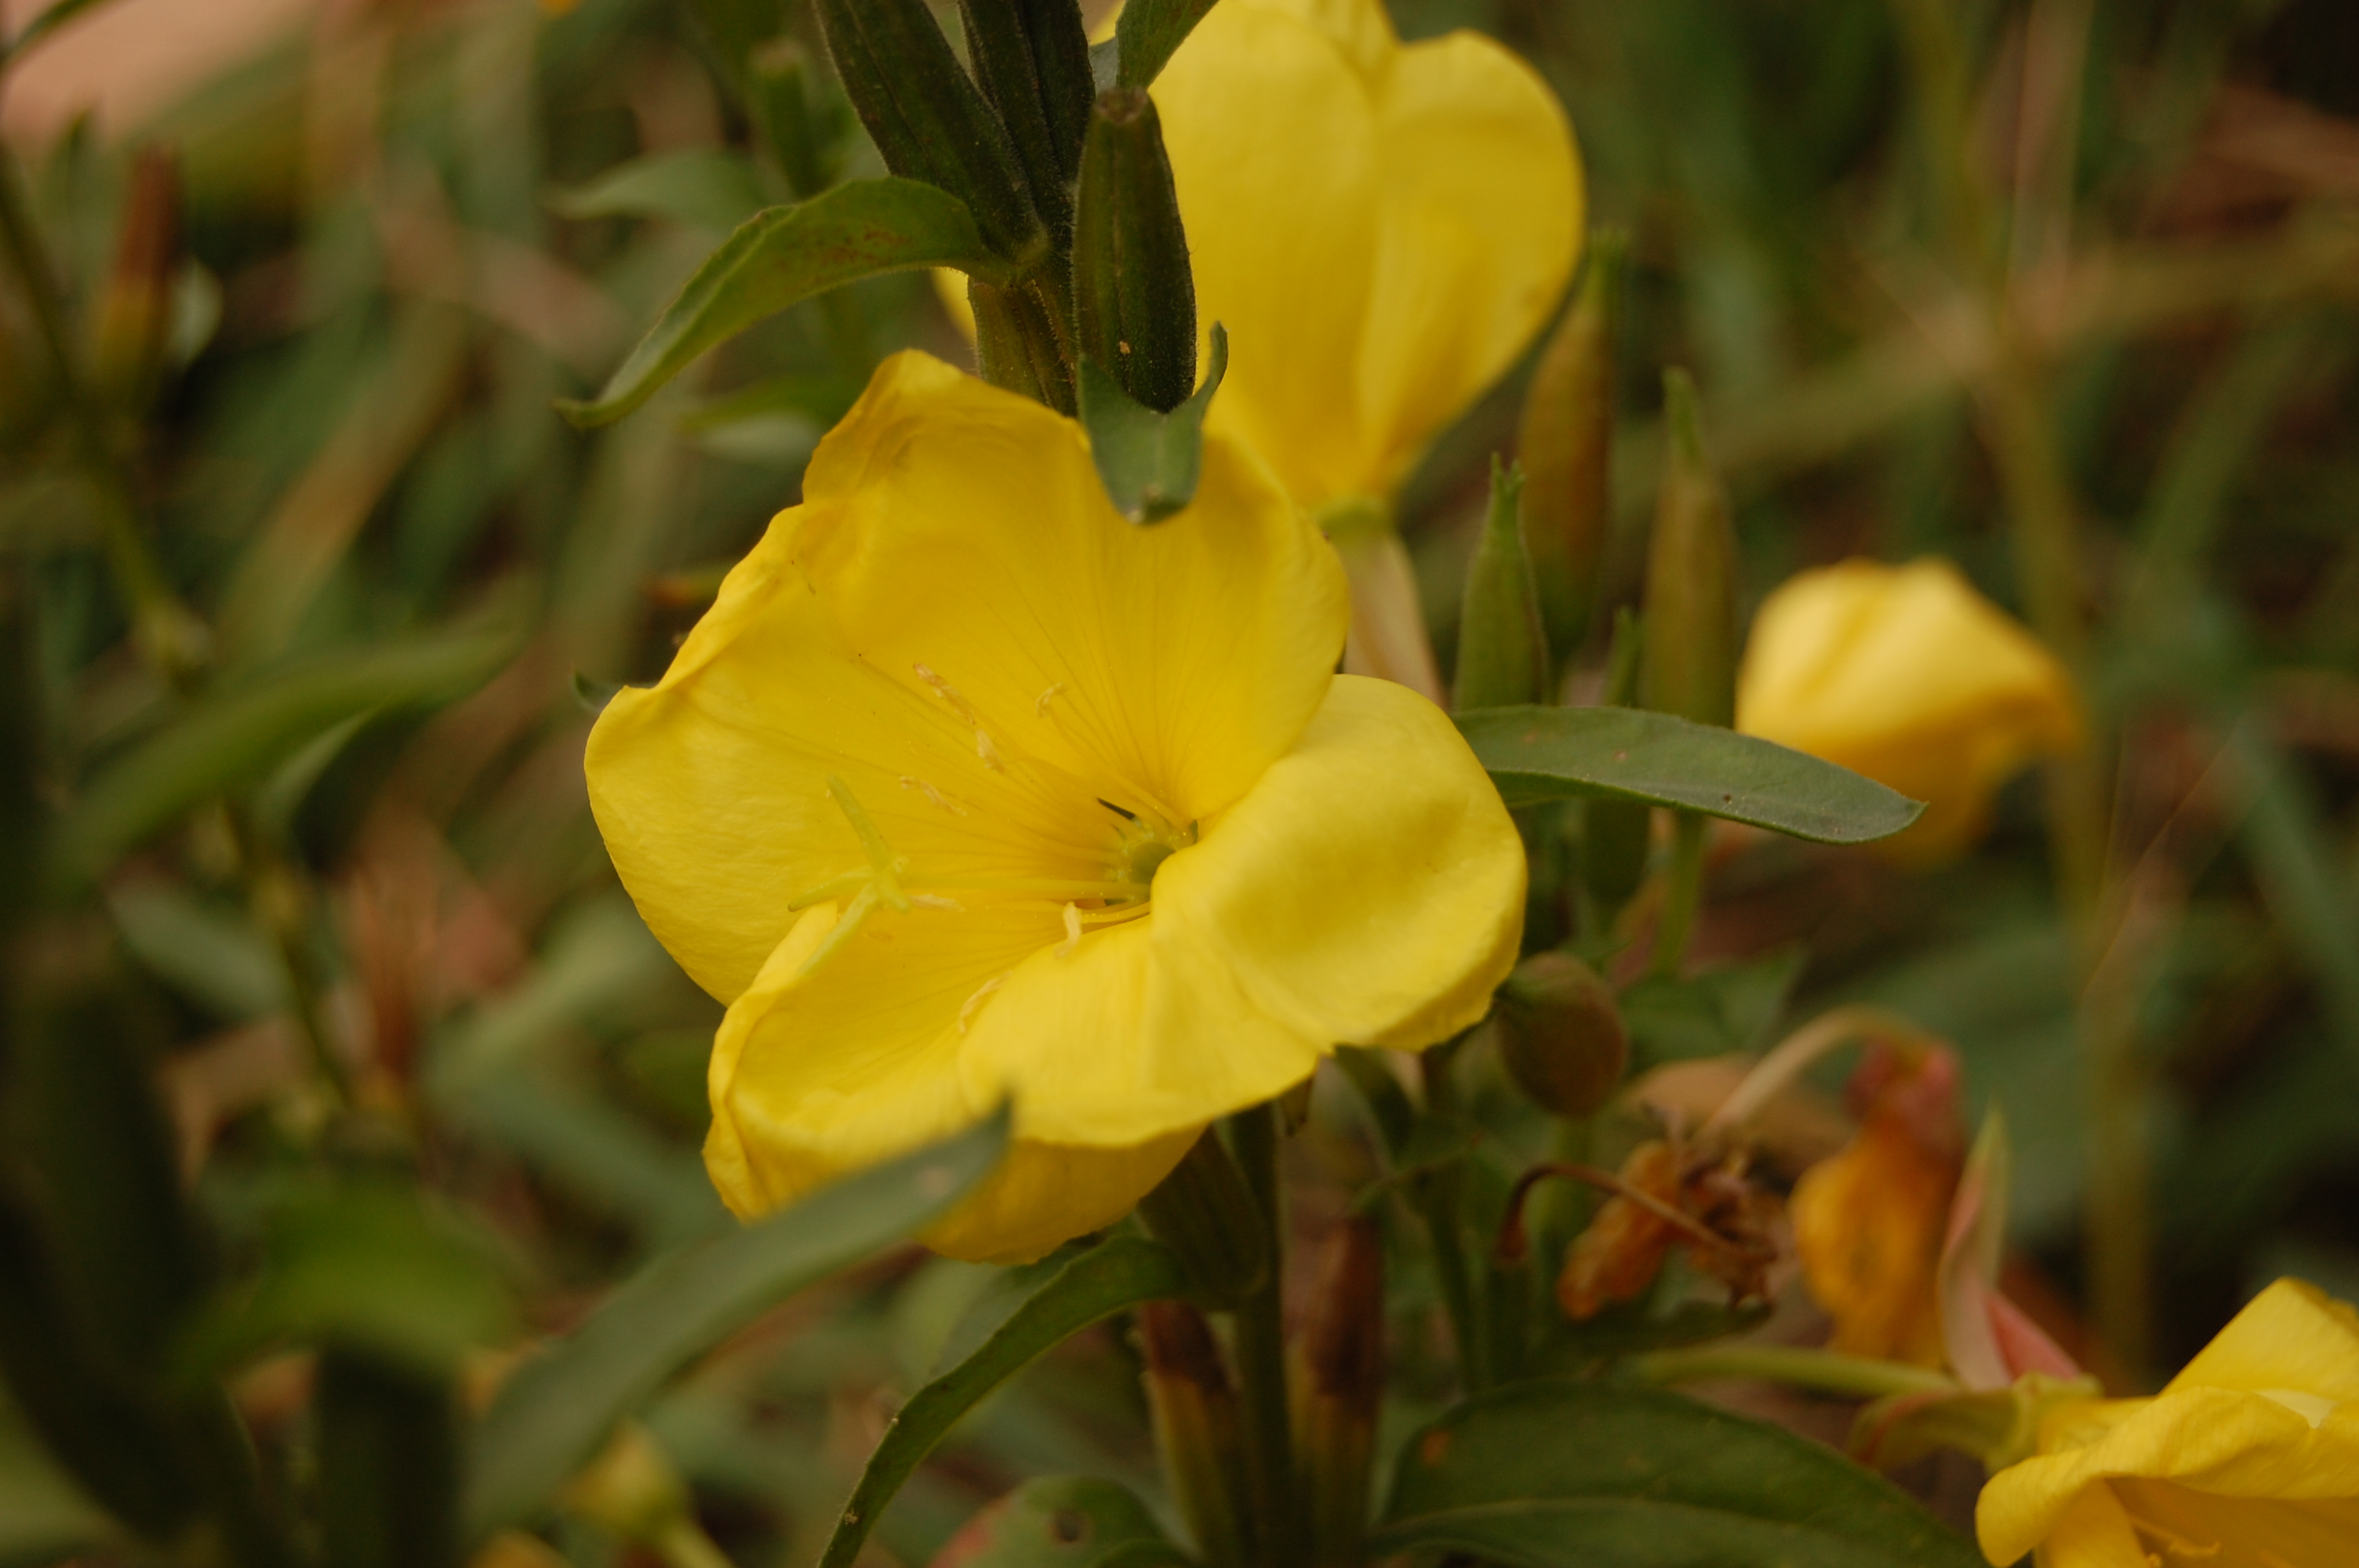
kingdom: Plantae
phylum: Tracheophyta
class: Magnoliopsida
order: Myrtales
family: Onagraceae
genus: Oenothera
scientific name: Oenothera biennis
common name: Common evening-primrose
